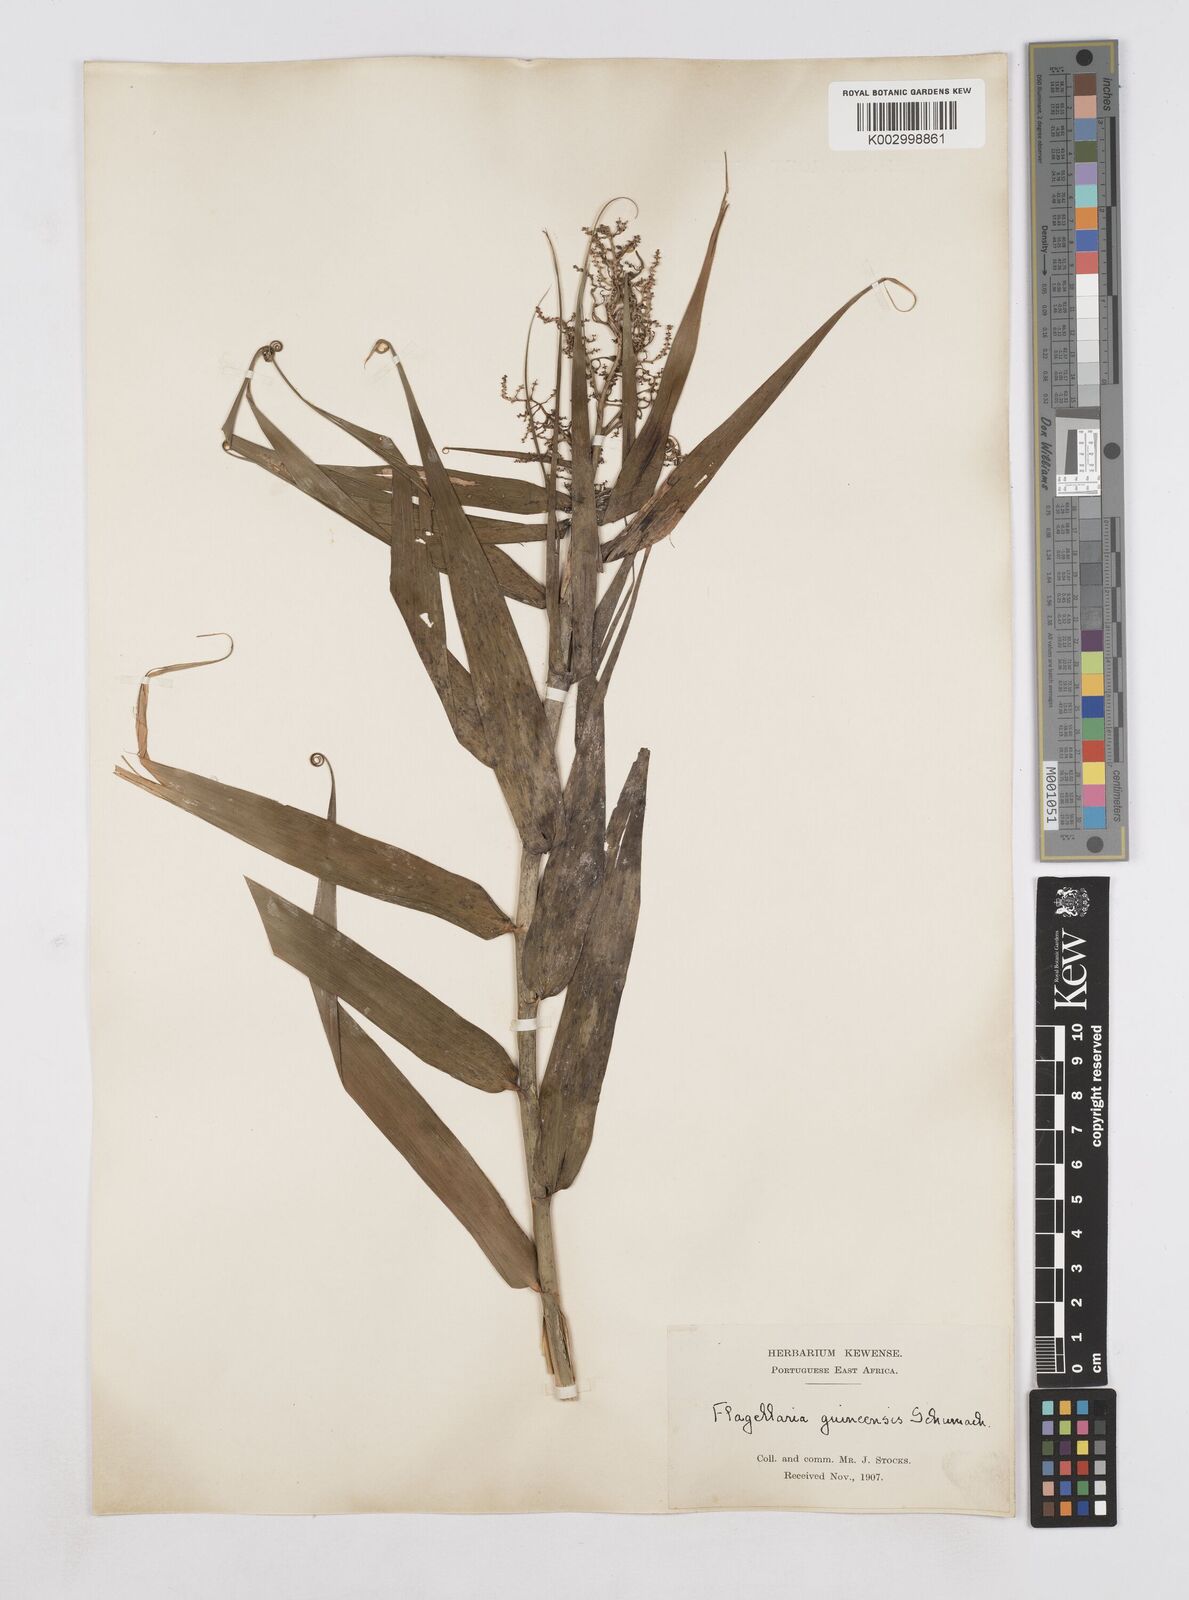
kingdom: Plantae
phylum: Tracheophyta
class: Liliopsida
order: Poales
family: Flagellariaceae
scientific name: Flagellariaceae
